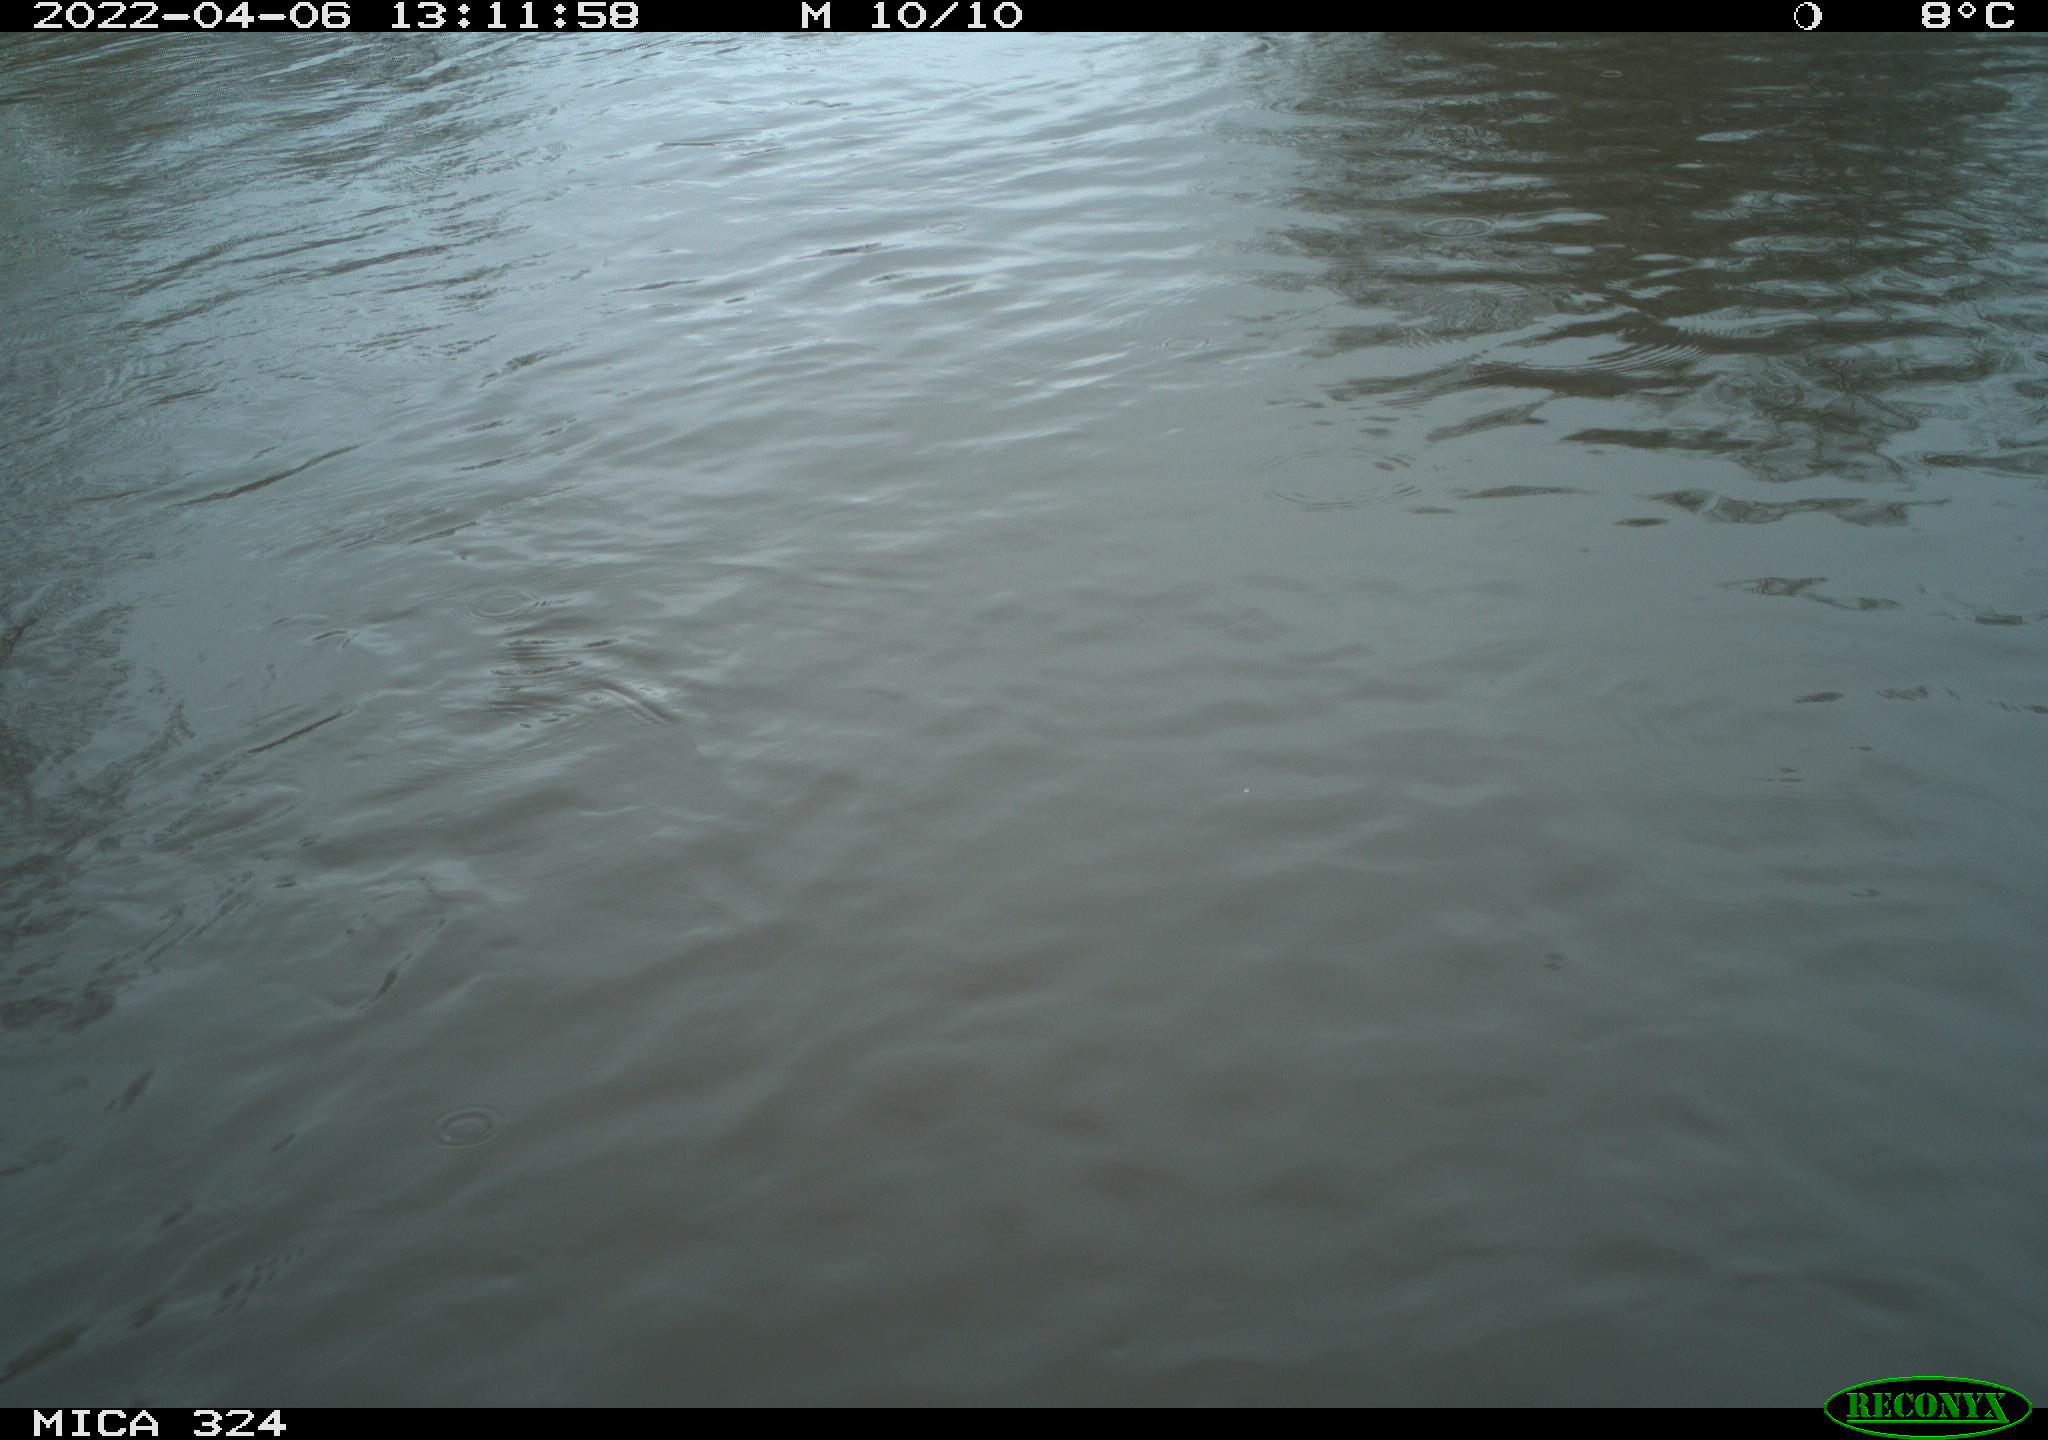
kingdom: Animalia
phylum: Chordata
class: Mammalia
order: Rodentia
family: Cricetidae
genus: Ondatra
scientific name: Ondatra zibethicus
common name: Muskrat
